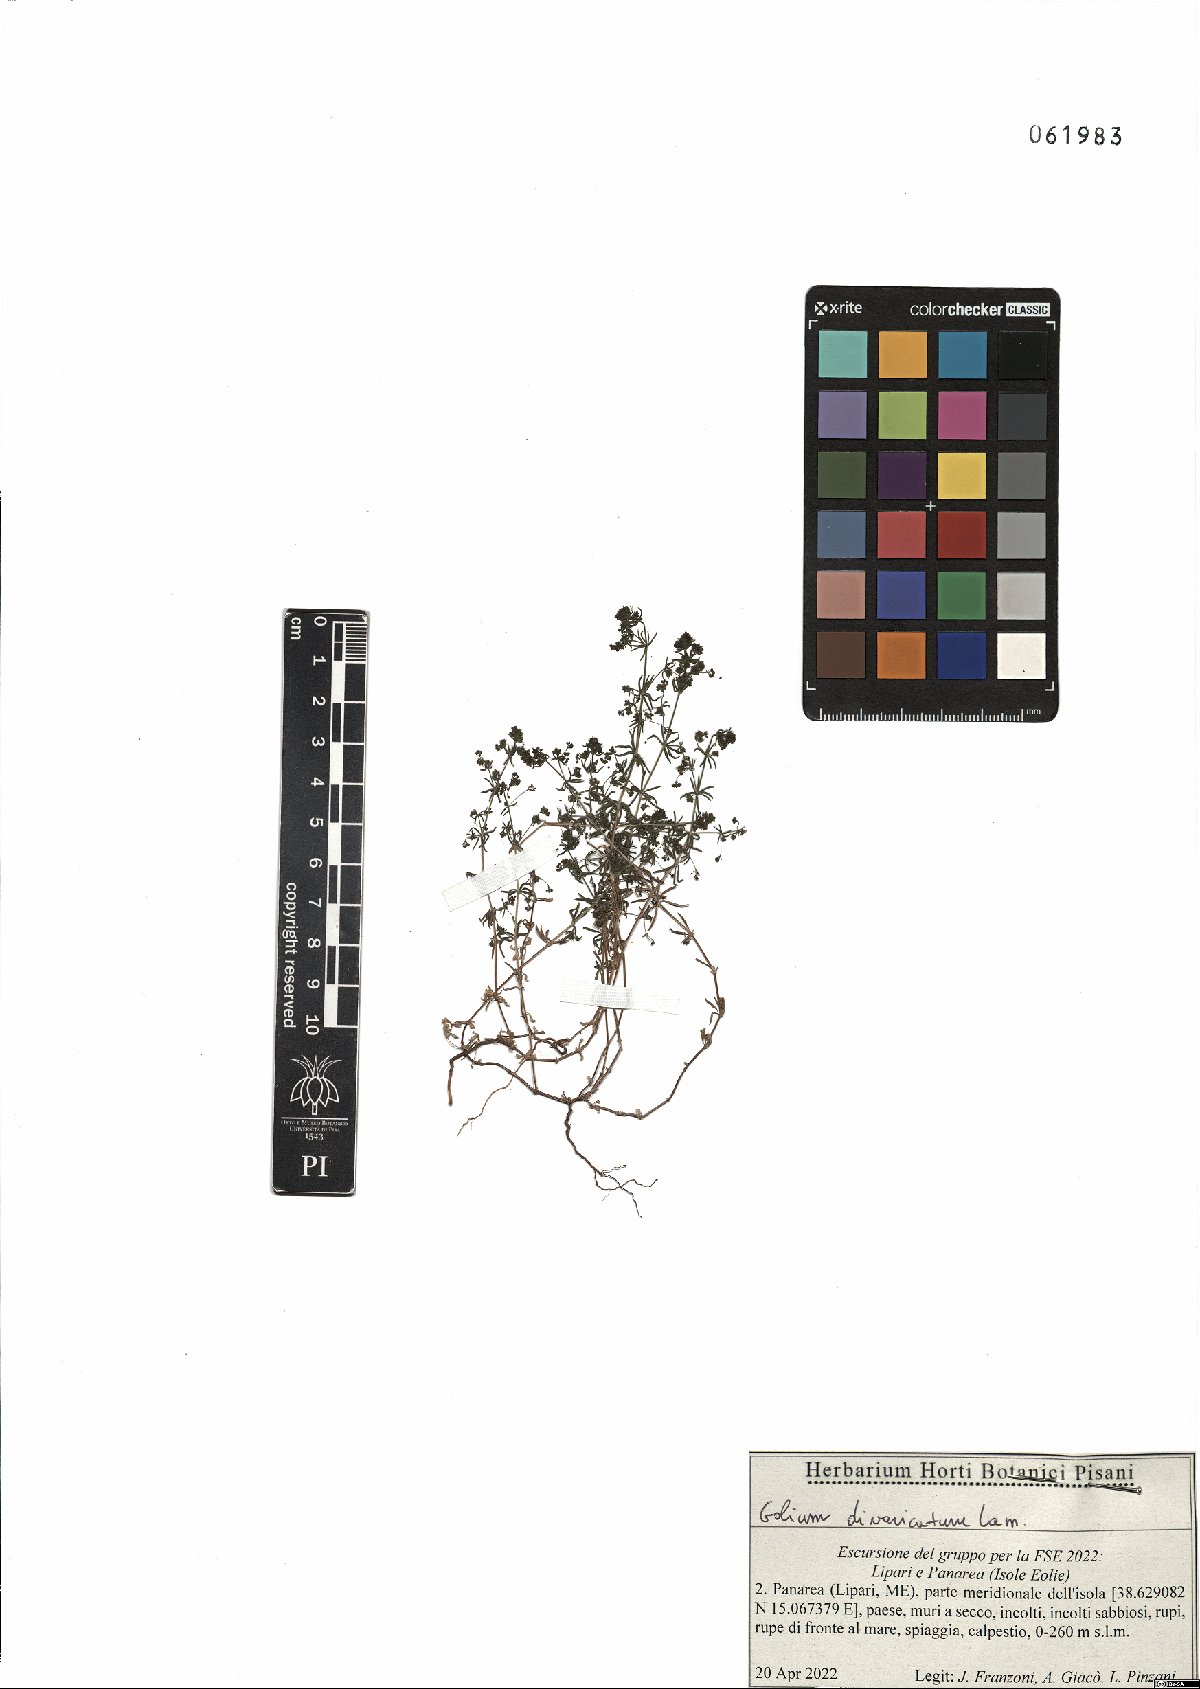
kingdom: Plantae
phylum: Tracheophyta
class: Magnoliopsida
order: Gentianales
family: Rubiaceae
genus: Galium
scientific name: Galium divaricatum
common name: Lamarck's bedstraw
